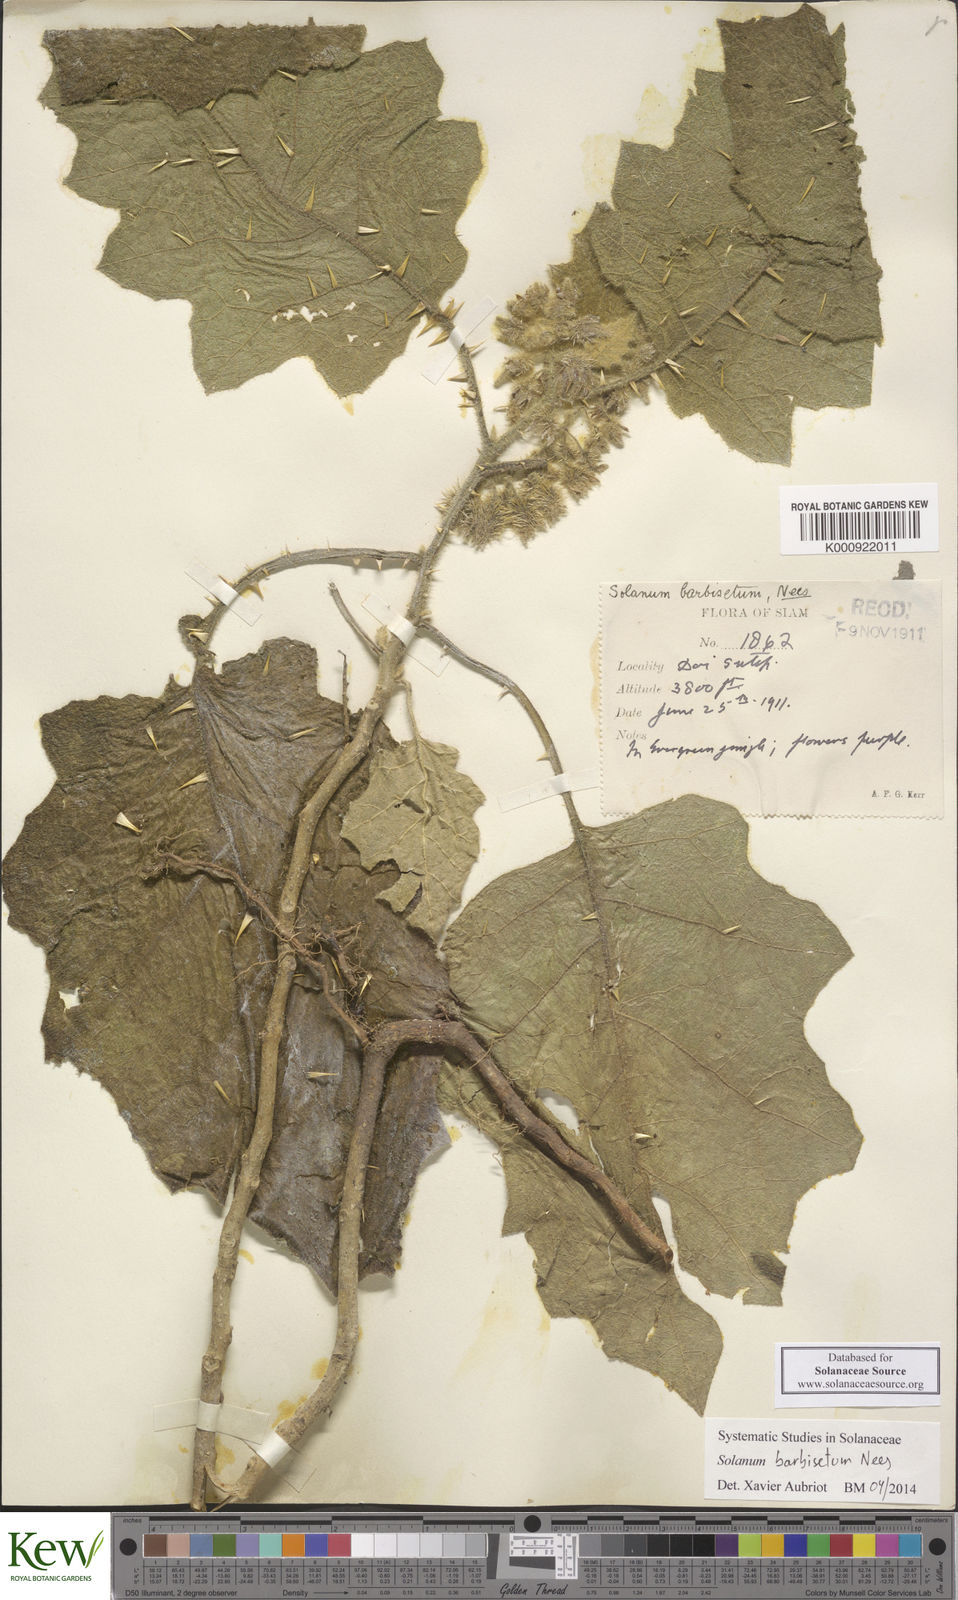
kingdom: Plantae
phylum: Tracheophyta
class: Magnoliopsida
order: Solanales
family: Solanaceae
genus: Solanum
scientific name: Solanum barbisetum
